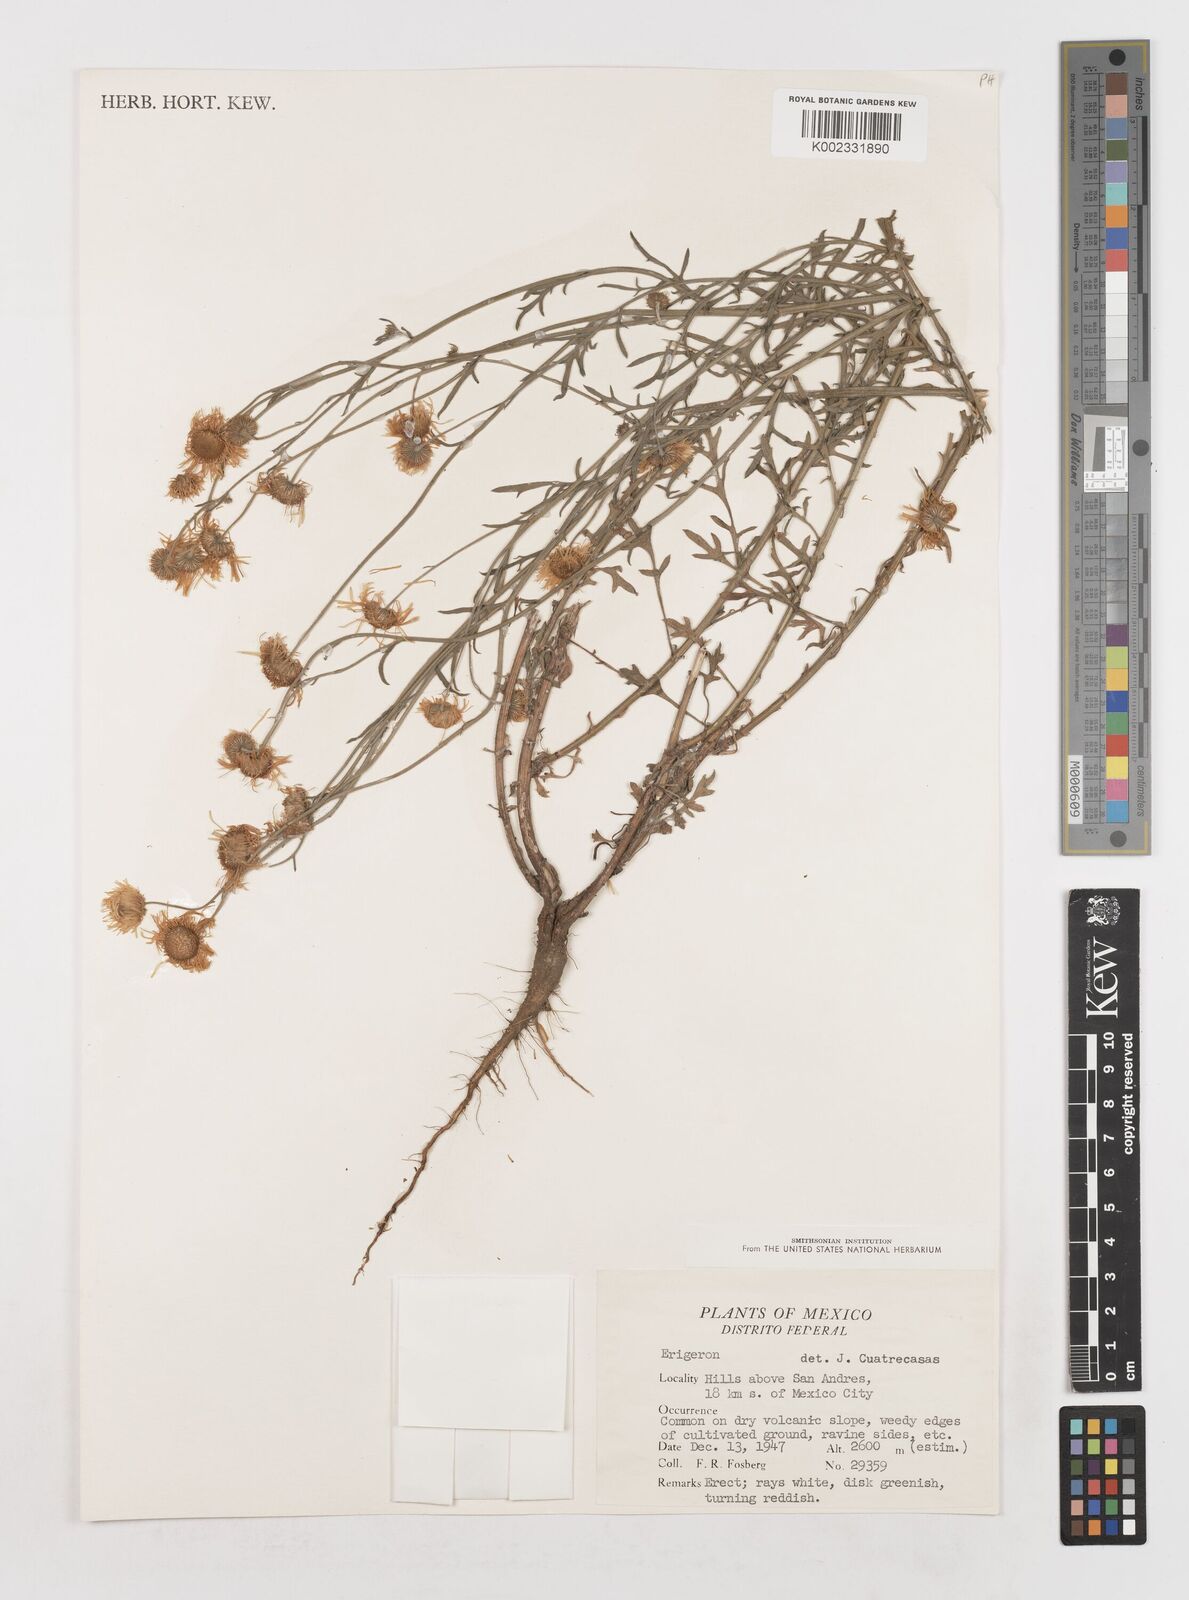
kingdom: Plantae
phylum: Tracheophyta
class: Magnoliopsida
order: Asterales
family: Asteraceae
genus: Erigeron
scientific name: Erigeron
